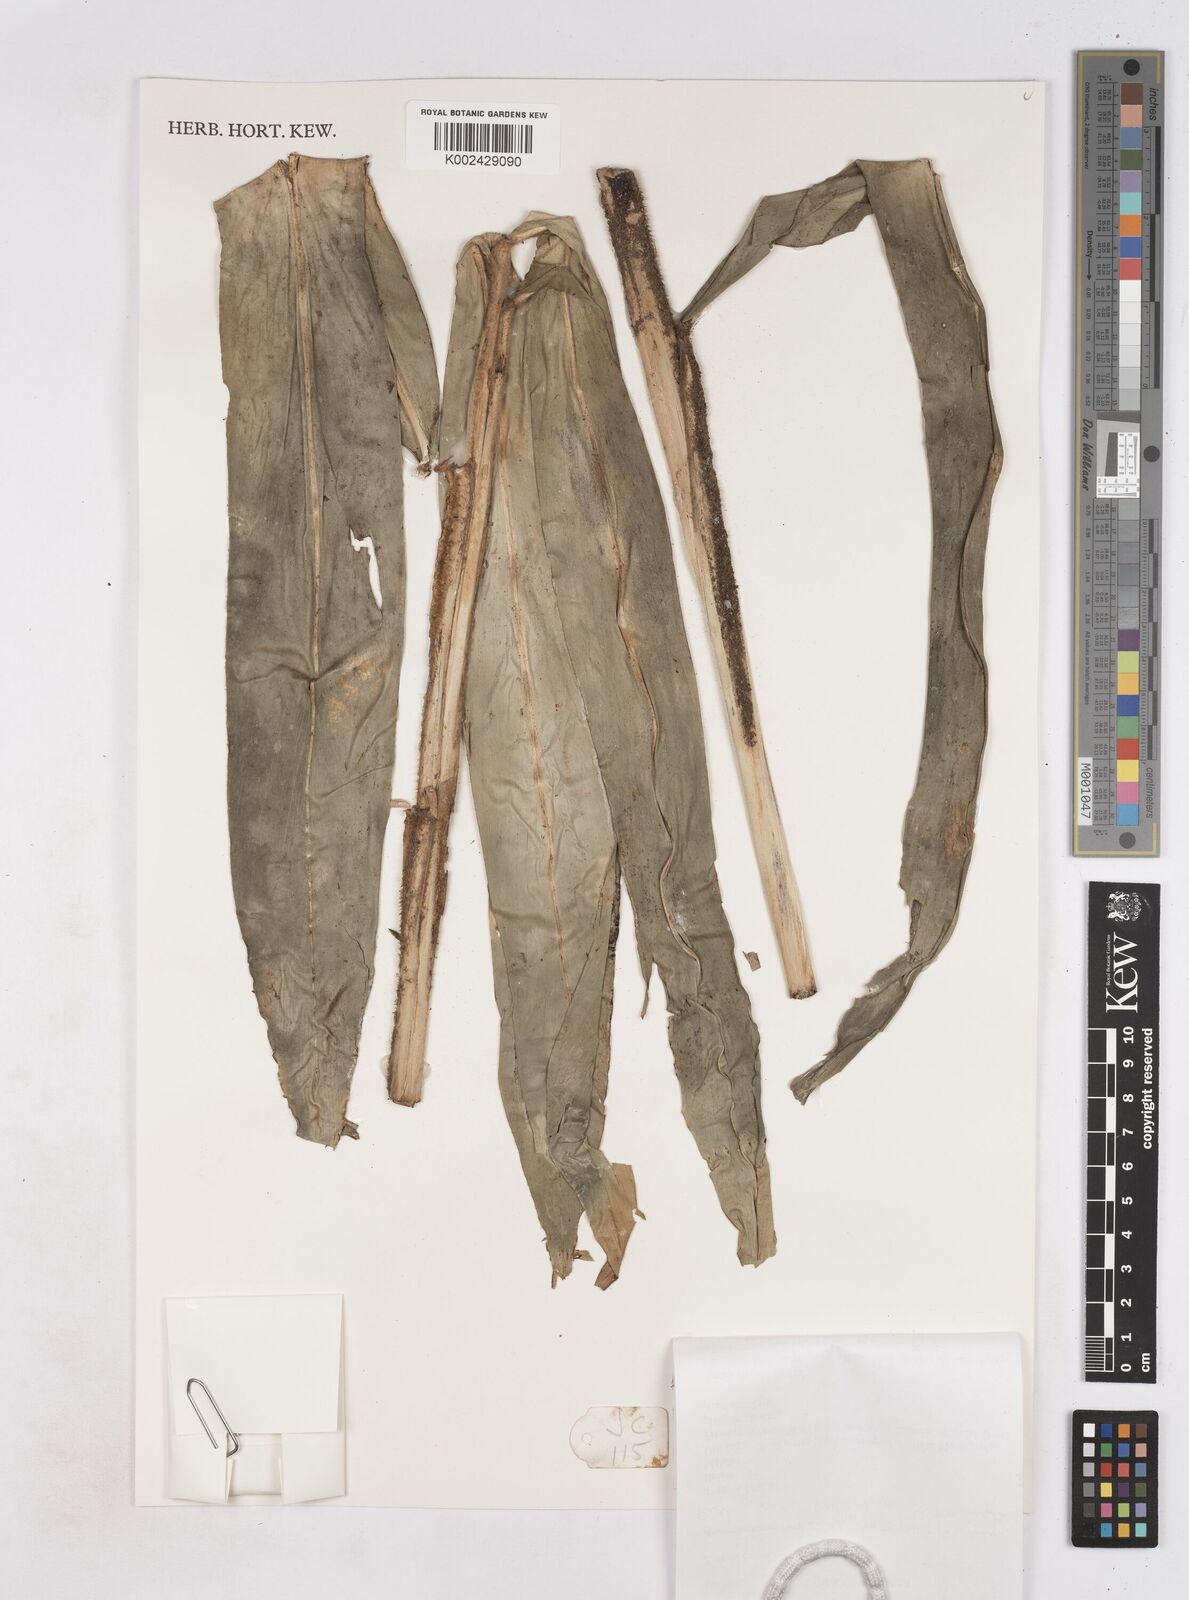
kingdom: Plantae
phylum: Tracheophyta
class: Liliopsida
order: Zingiberales
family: Zingiberaceae
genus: Zingiber
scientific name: Zingiber puberulum
